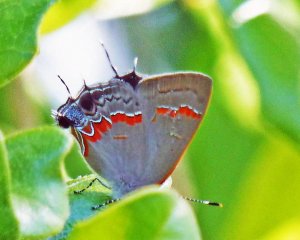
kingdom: Animalia
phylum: Arthropoda
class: Insecta
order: Lepidoptera
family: Lycaenidae
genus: Calycopis
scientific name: Calycopis cecrops
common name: Red-banded Hairstreak
